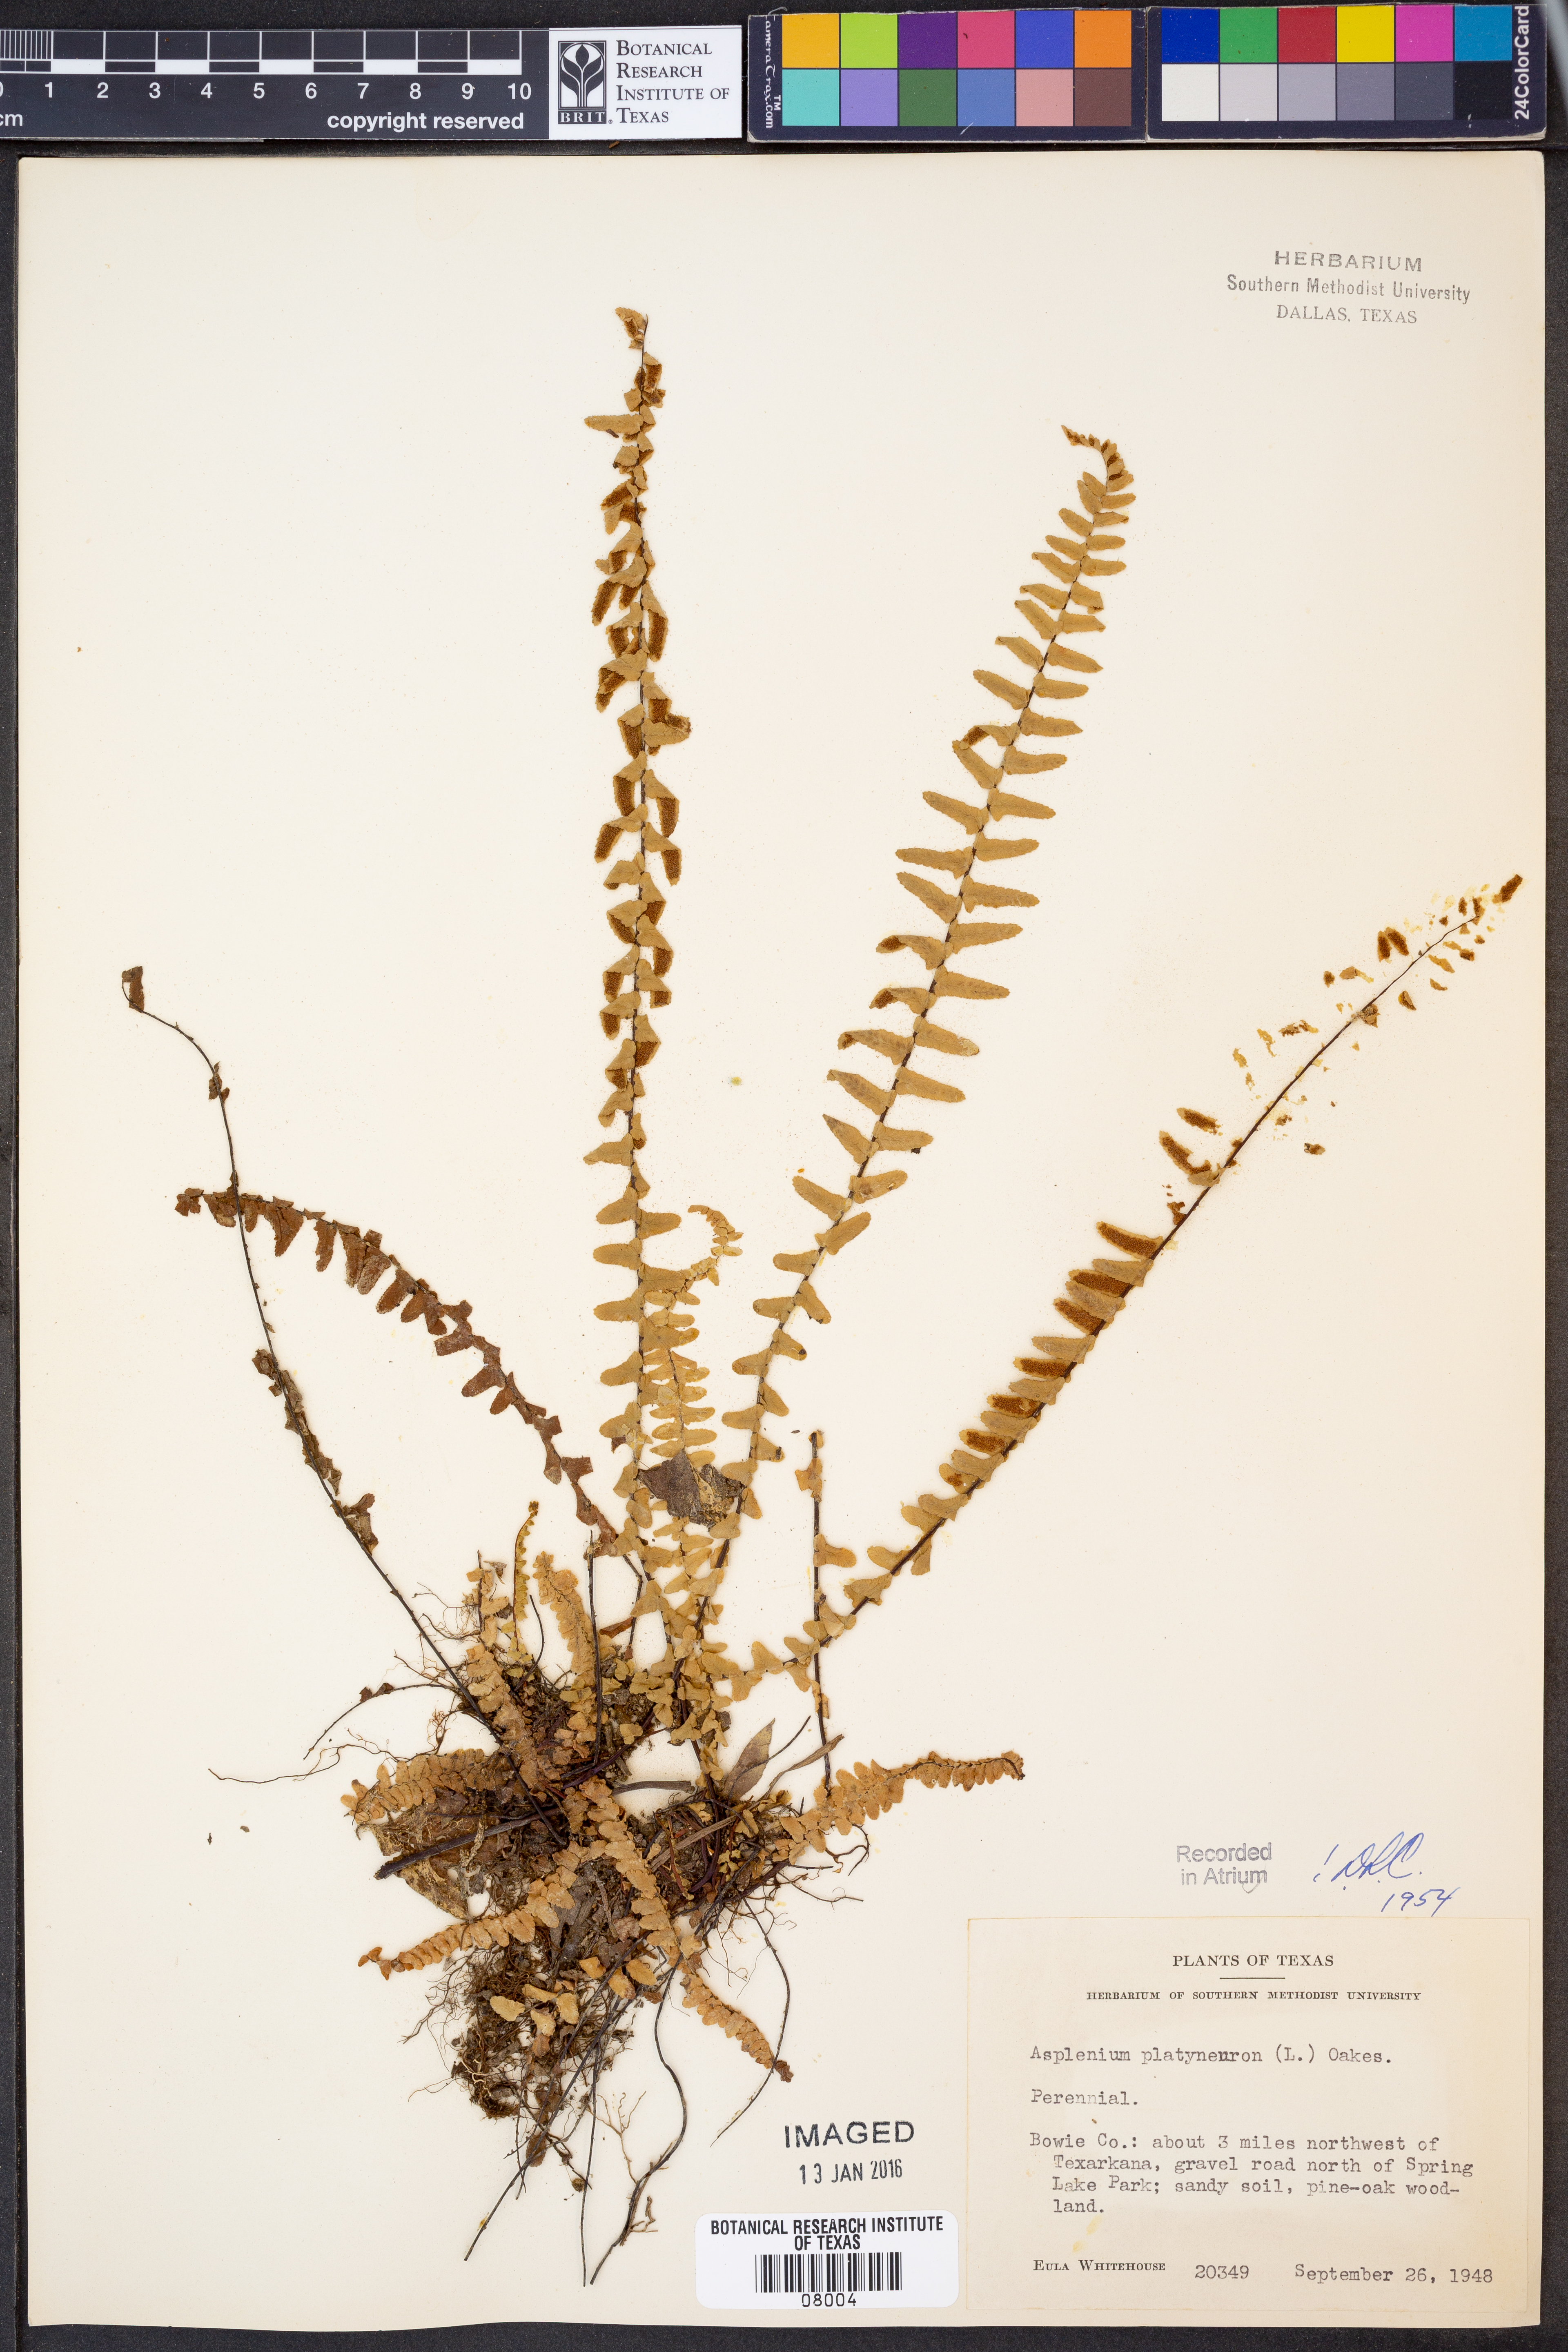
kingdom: Plantae
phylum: Tracheophyta
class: Polypodiopsida
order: Polypodiales
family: Aspleniaceae
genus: Asplenium
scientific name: Asplenium platyneuron
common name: Ebony spleenwort
